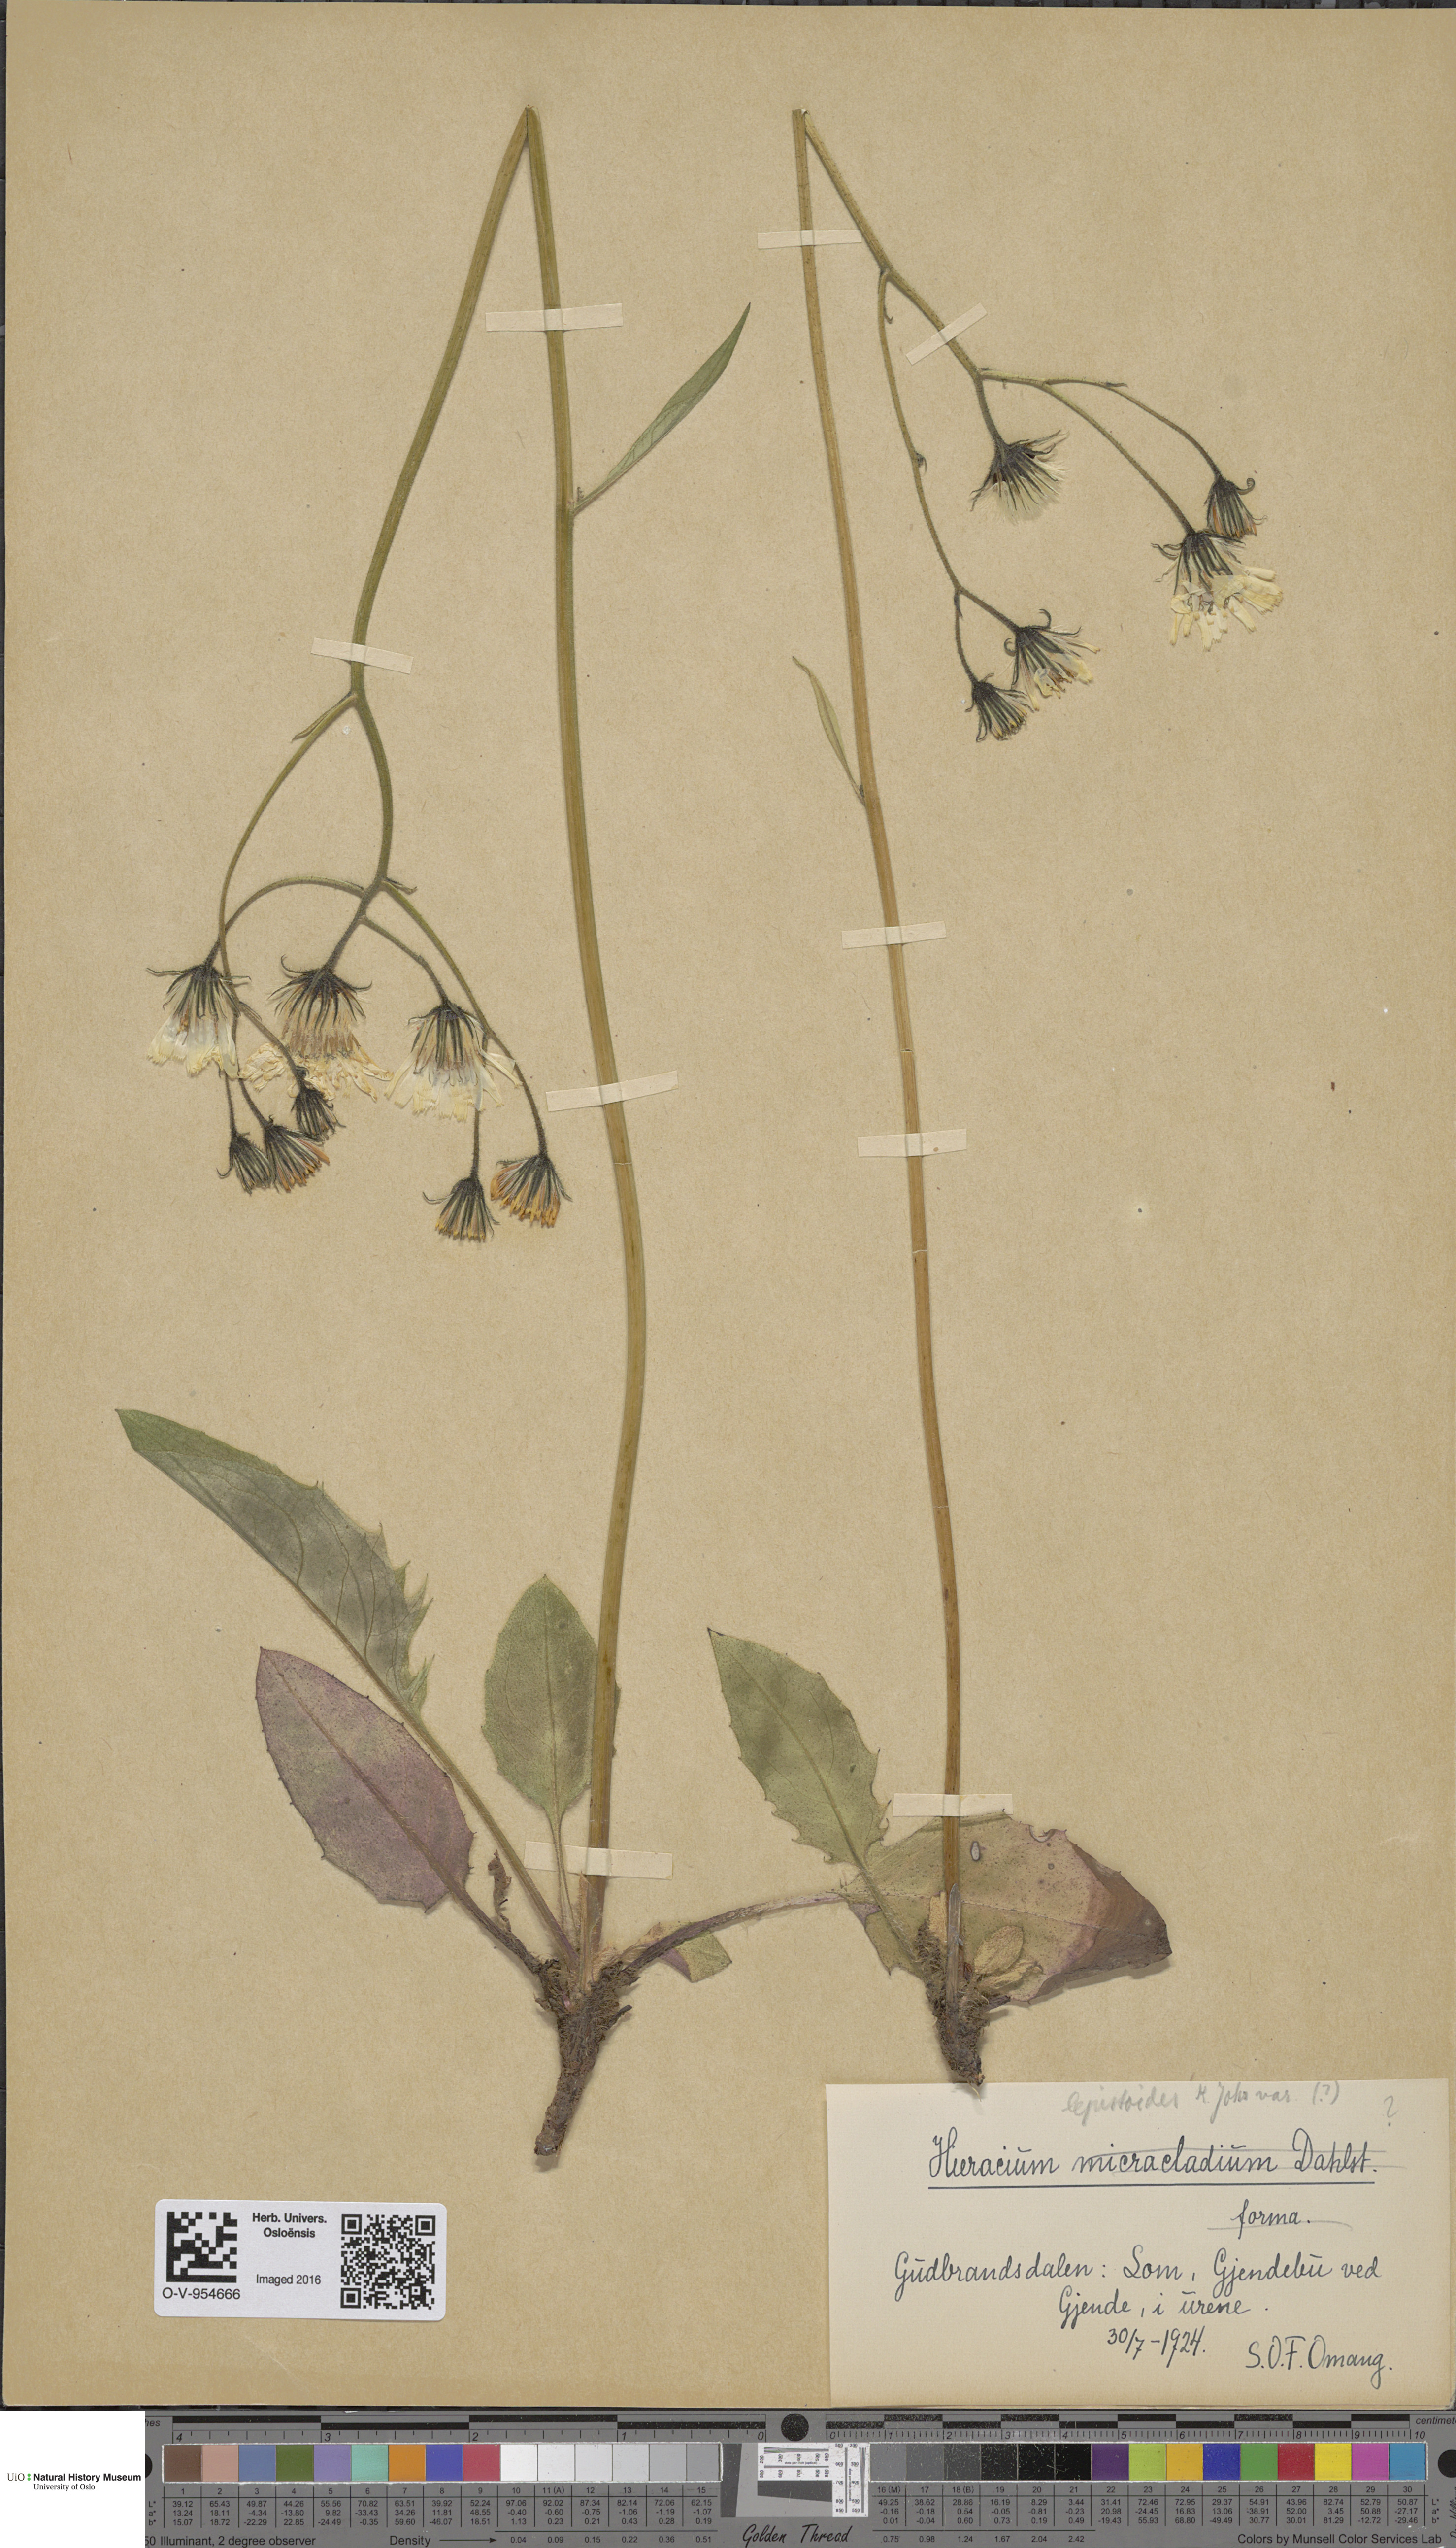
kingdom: Plantae
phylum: Tracheophyta
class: Magnoliopsida
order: Asterales
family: Asteraceae
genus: Hieracium
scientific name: Hieracium lepistoides
